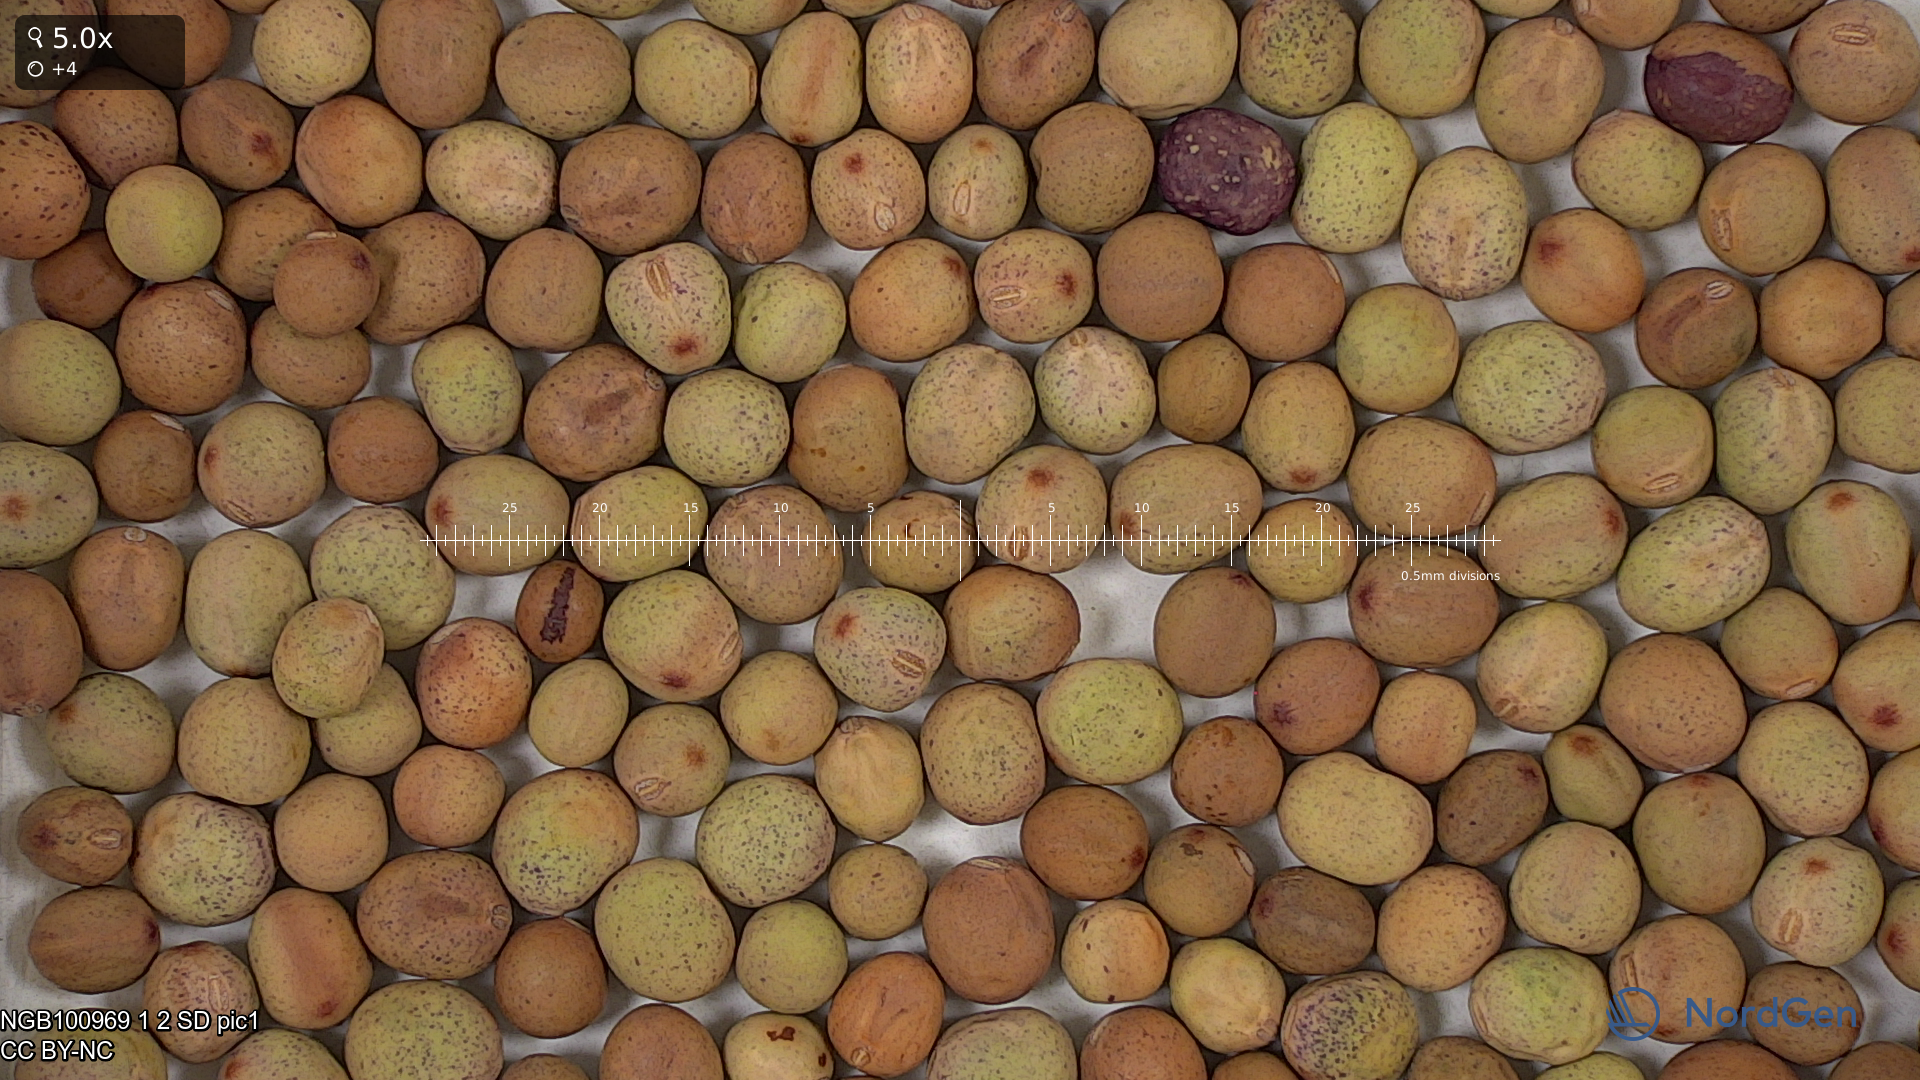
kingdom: Plantae
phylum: Tracheophyta
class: Magnoliopsida
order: Fabales
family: Fabaceae
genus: Lathyrus
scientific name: Lathyrus oleraceus
